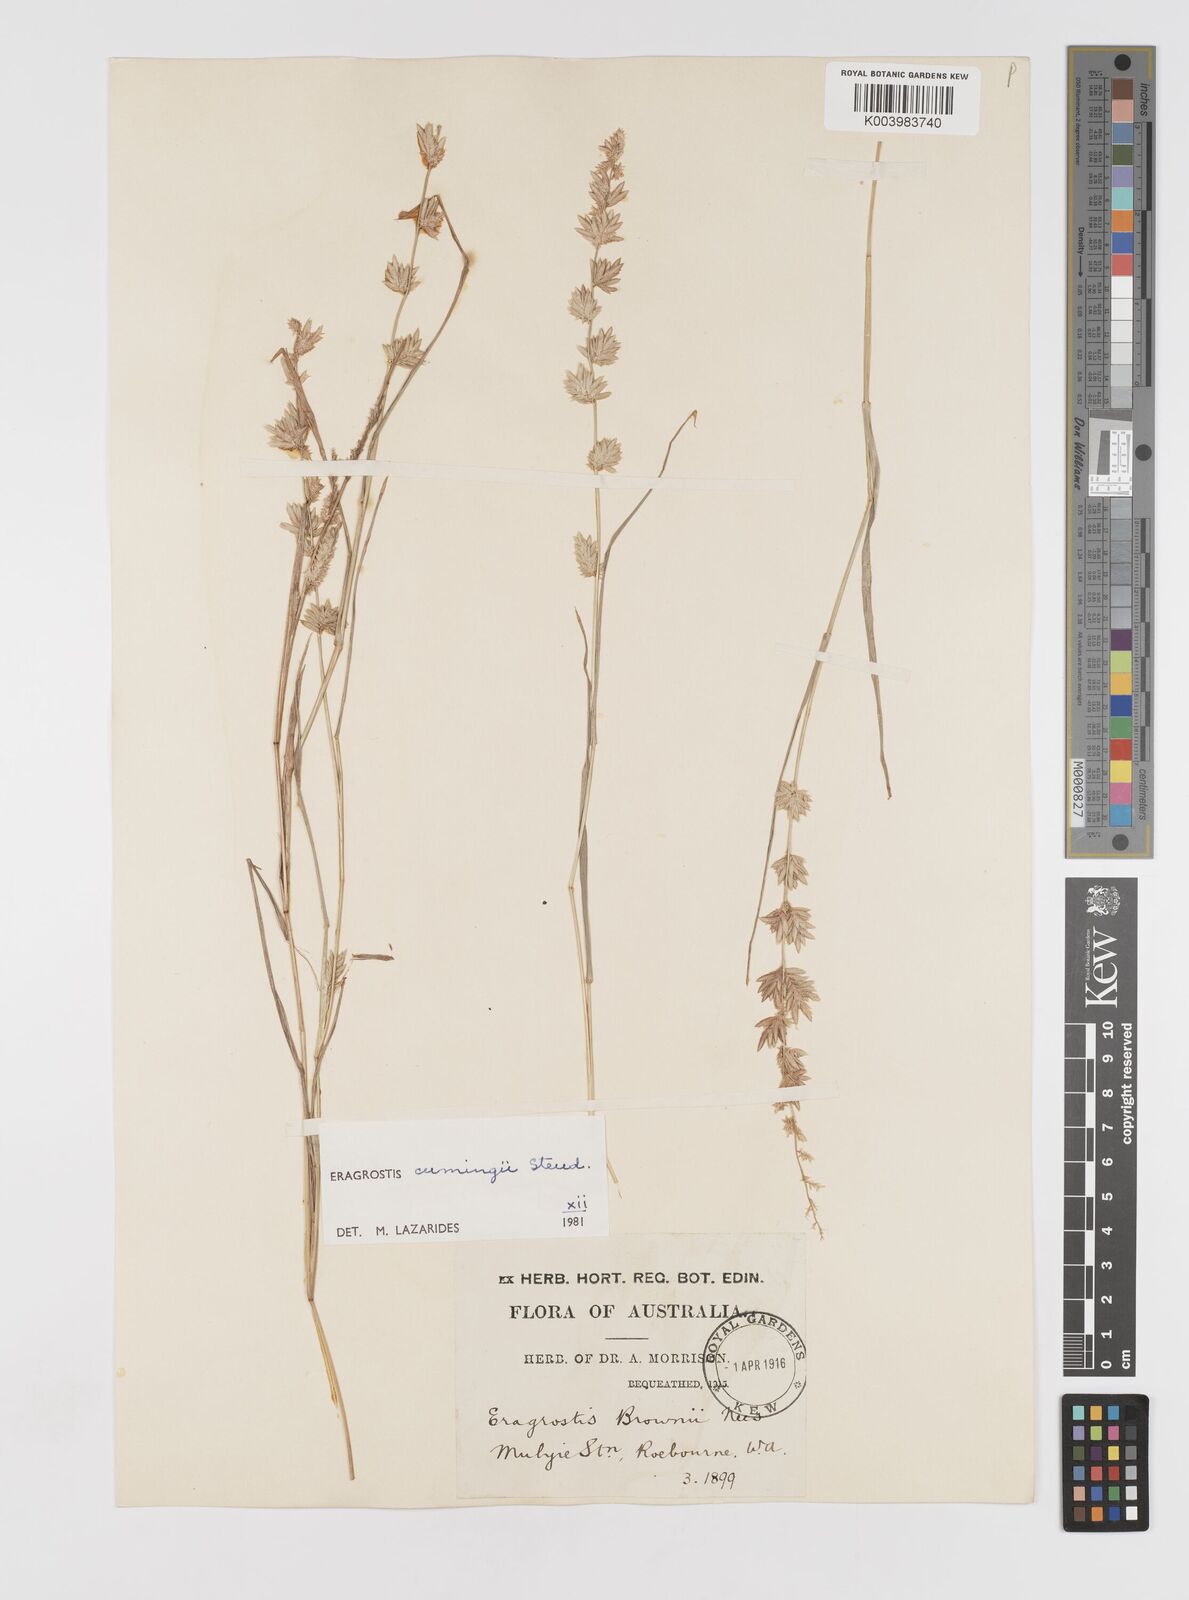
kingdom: Plantae
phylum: Tracheophyta
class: Liliopsida
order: Poales
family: Poaceae
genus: Eragrostis
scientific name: Eragrostis cumingii
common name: Cuming's lovegrass
